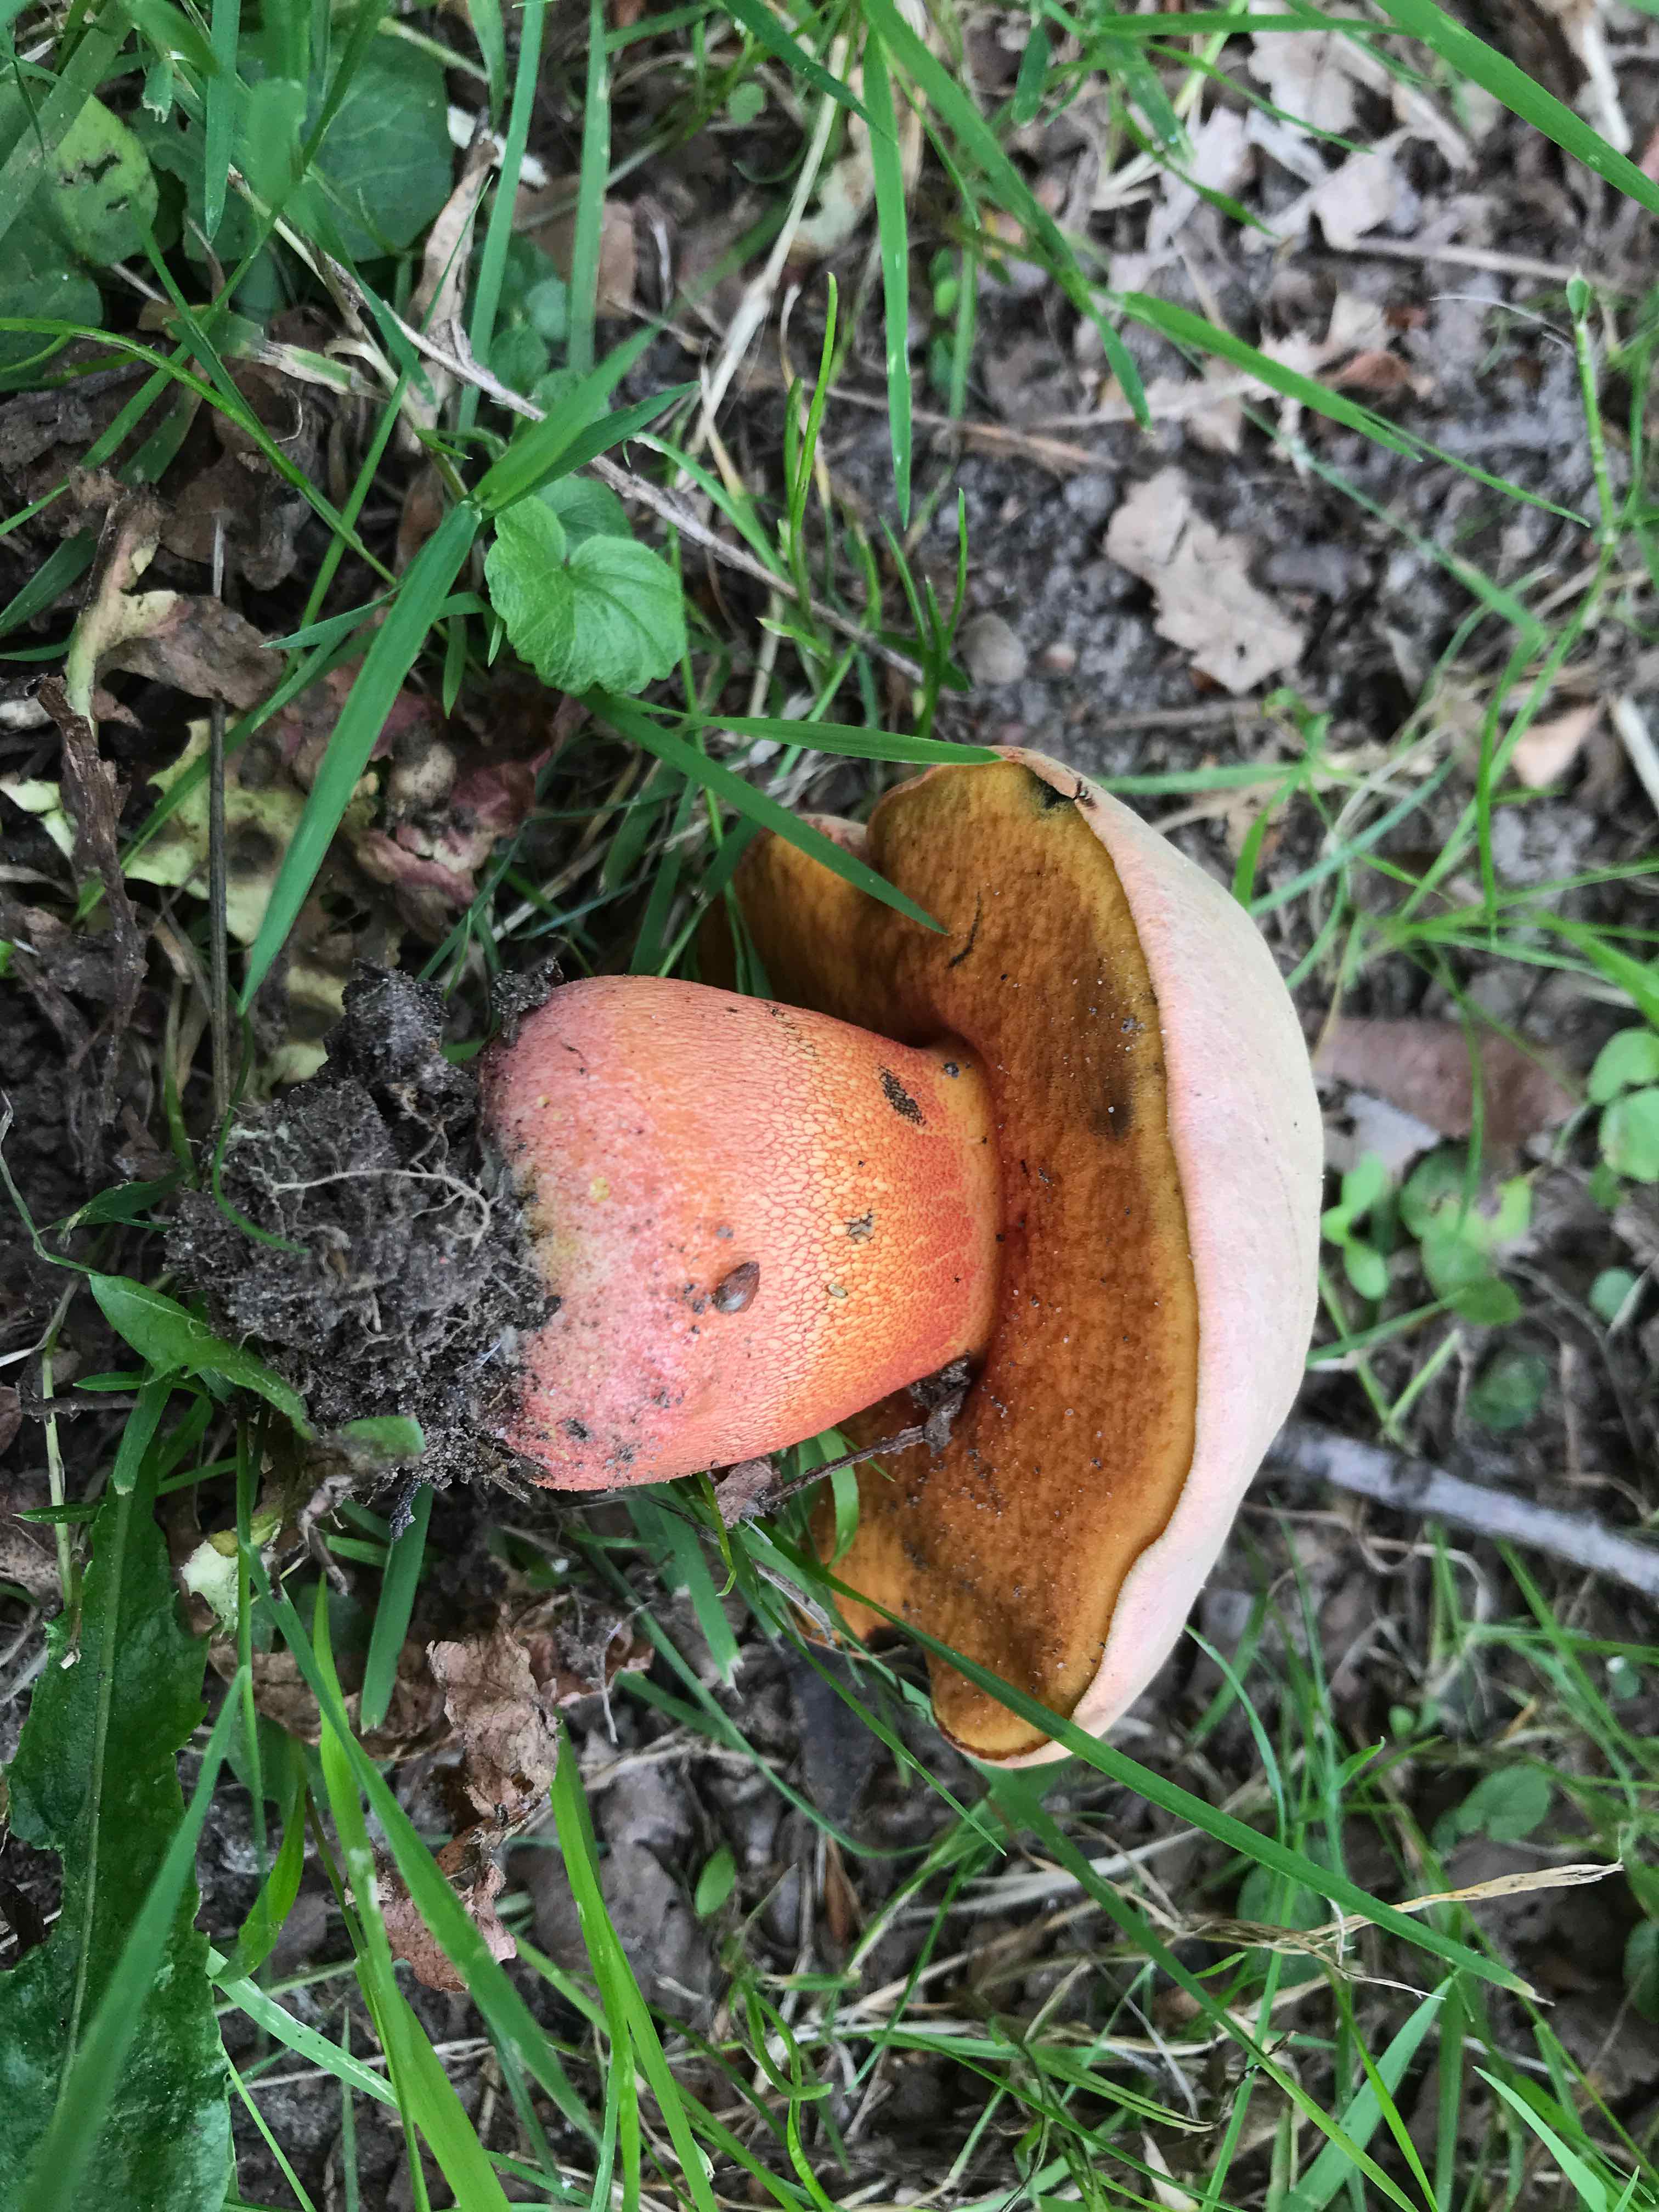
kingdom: Fungi
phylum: Basidiomycota
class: Agaricomycetes
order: Boletales
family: Boletaceae
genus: Rubroboletus
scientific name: Rubroboletus legaliae
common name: djævle-rørhat
